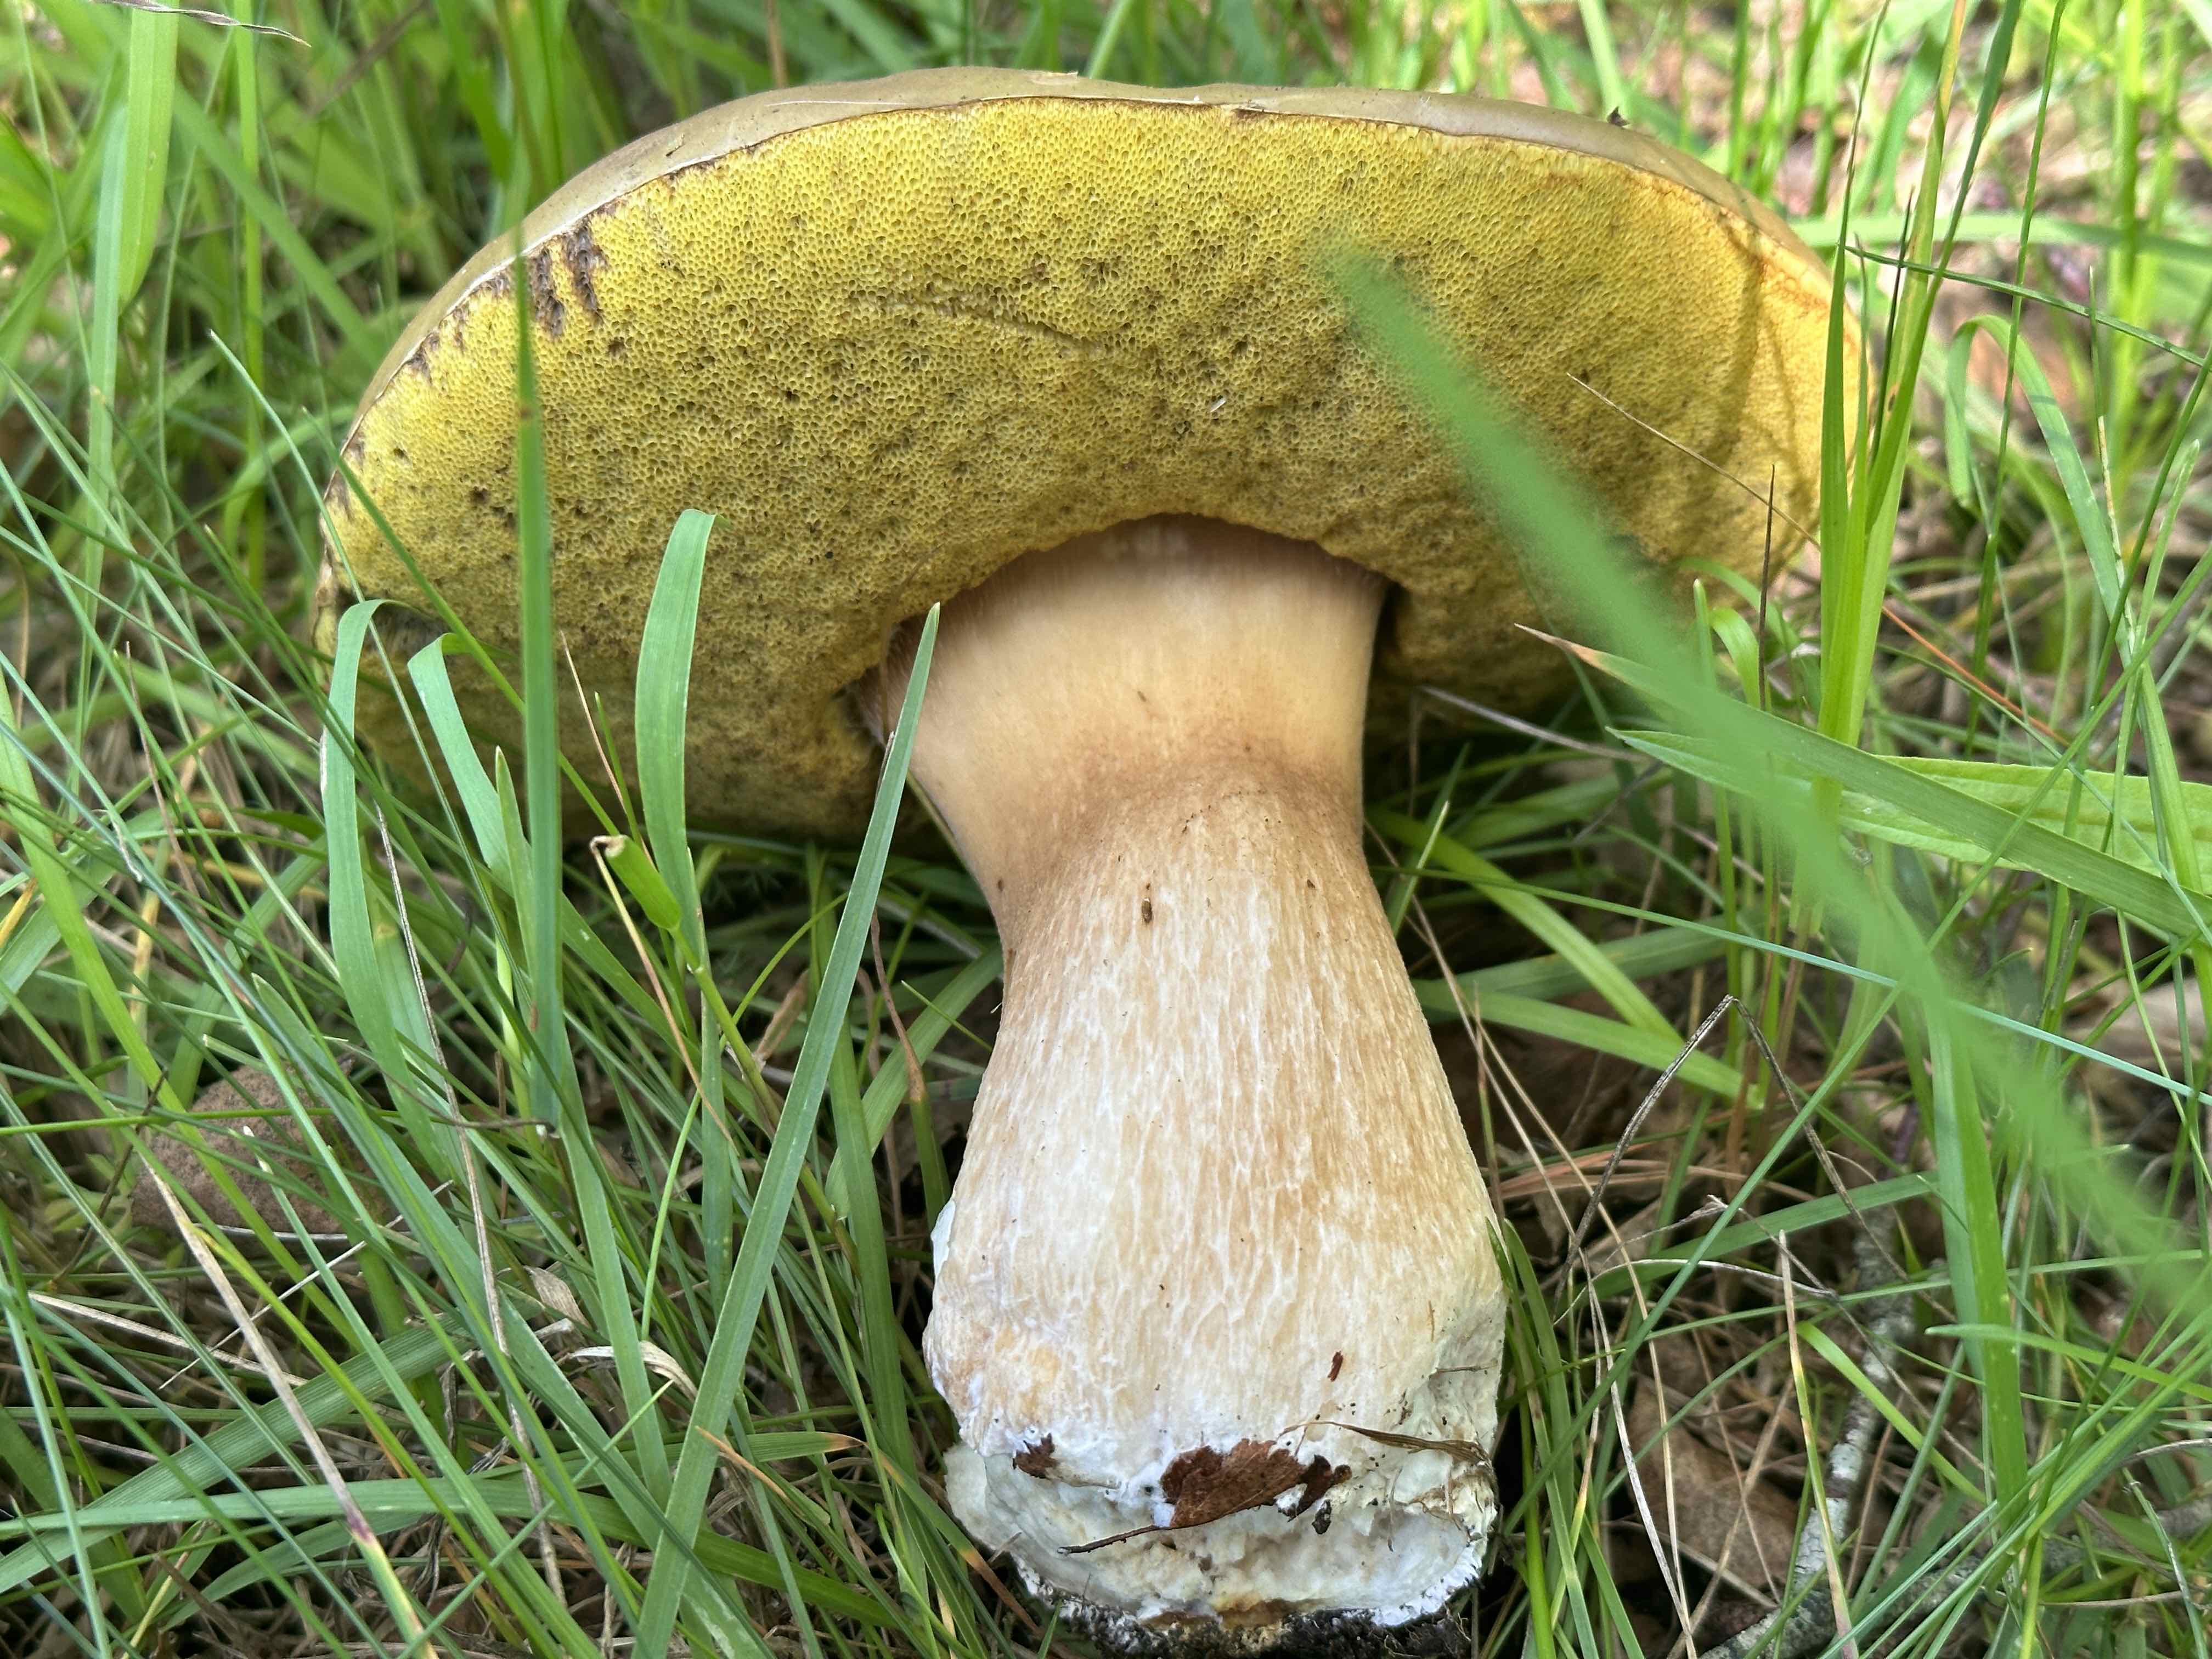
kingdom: Fungi
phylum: Basidiomycota
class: Agaricomycetes
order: Boletales
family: Boletaceae
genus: Boletus
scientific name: Boletus edulis
